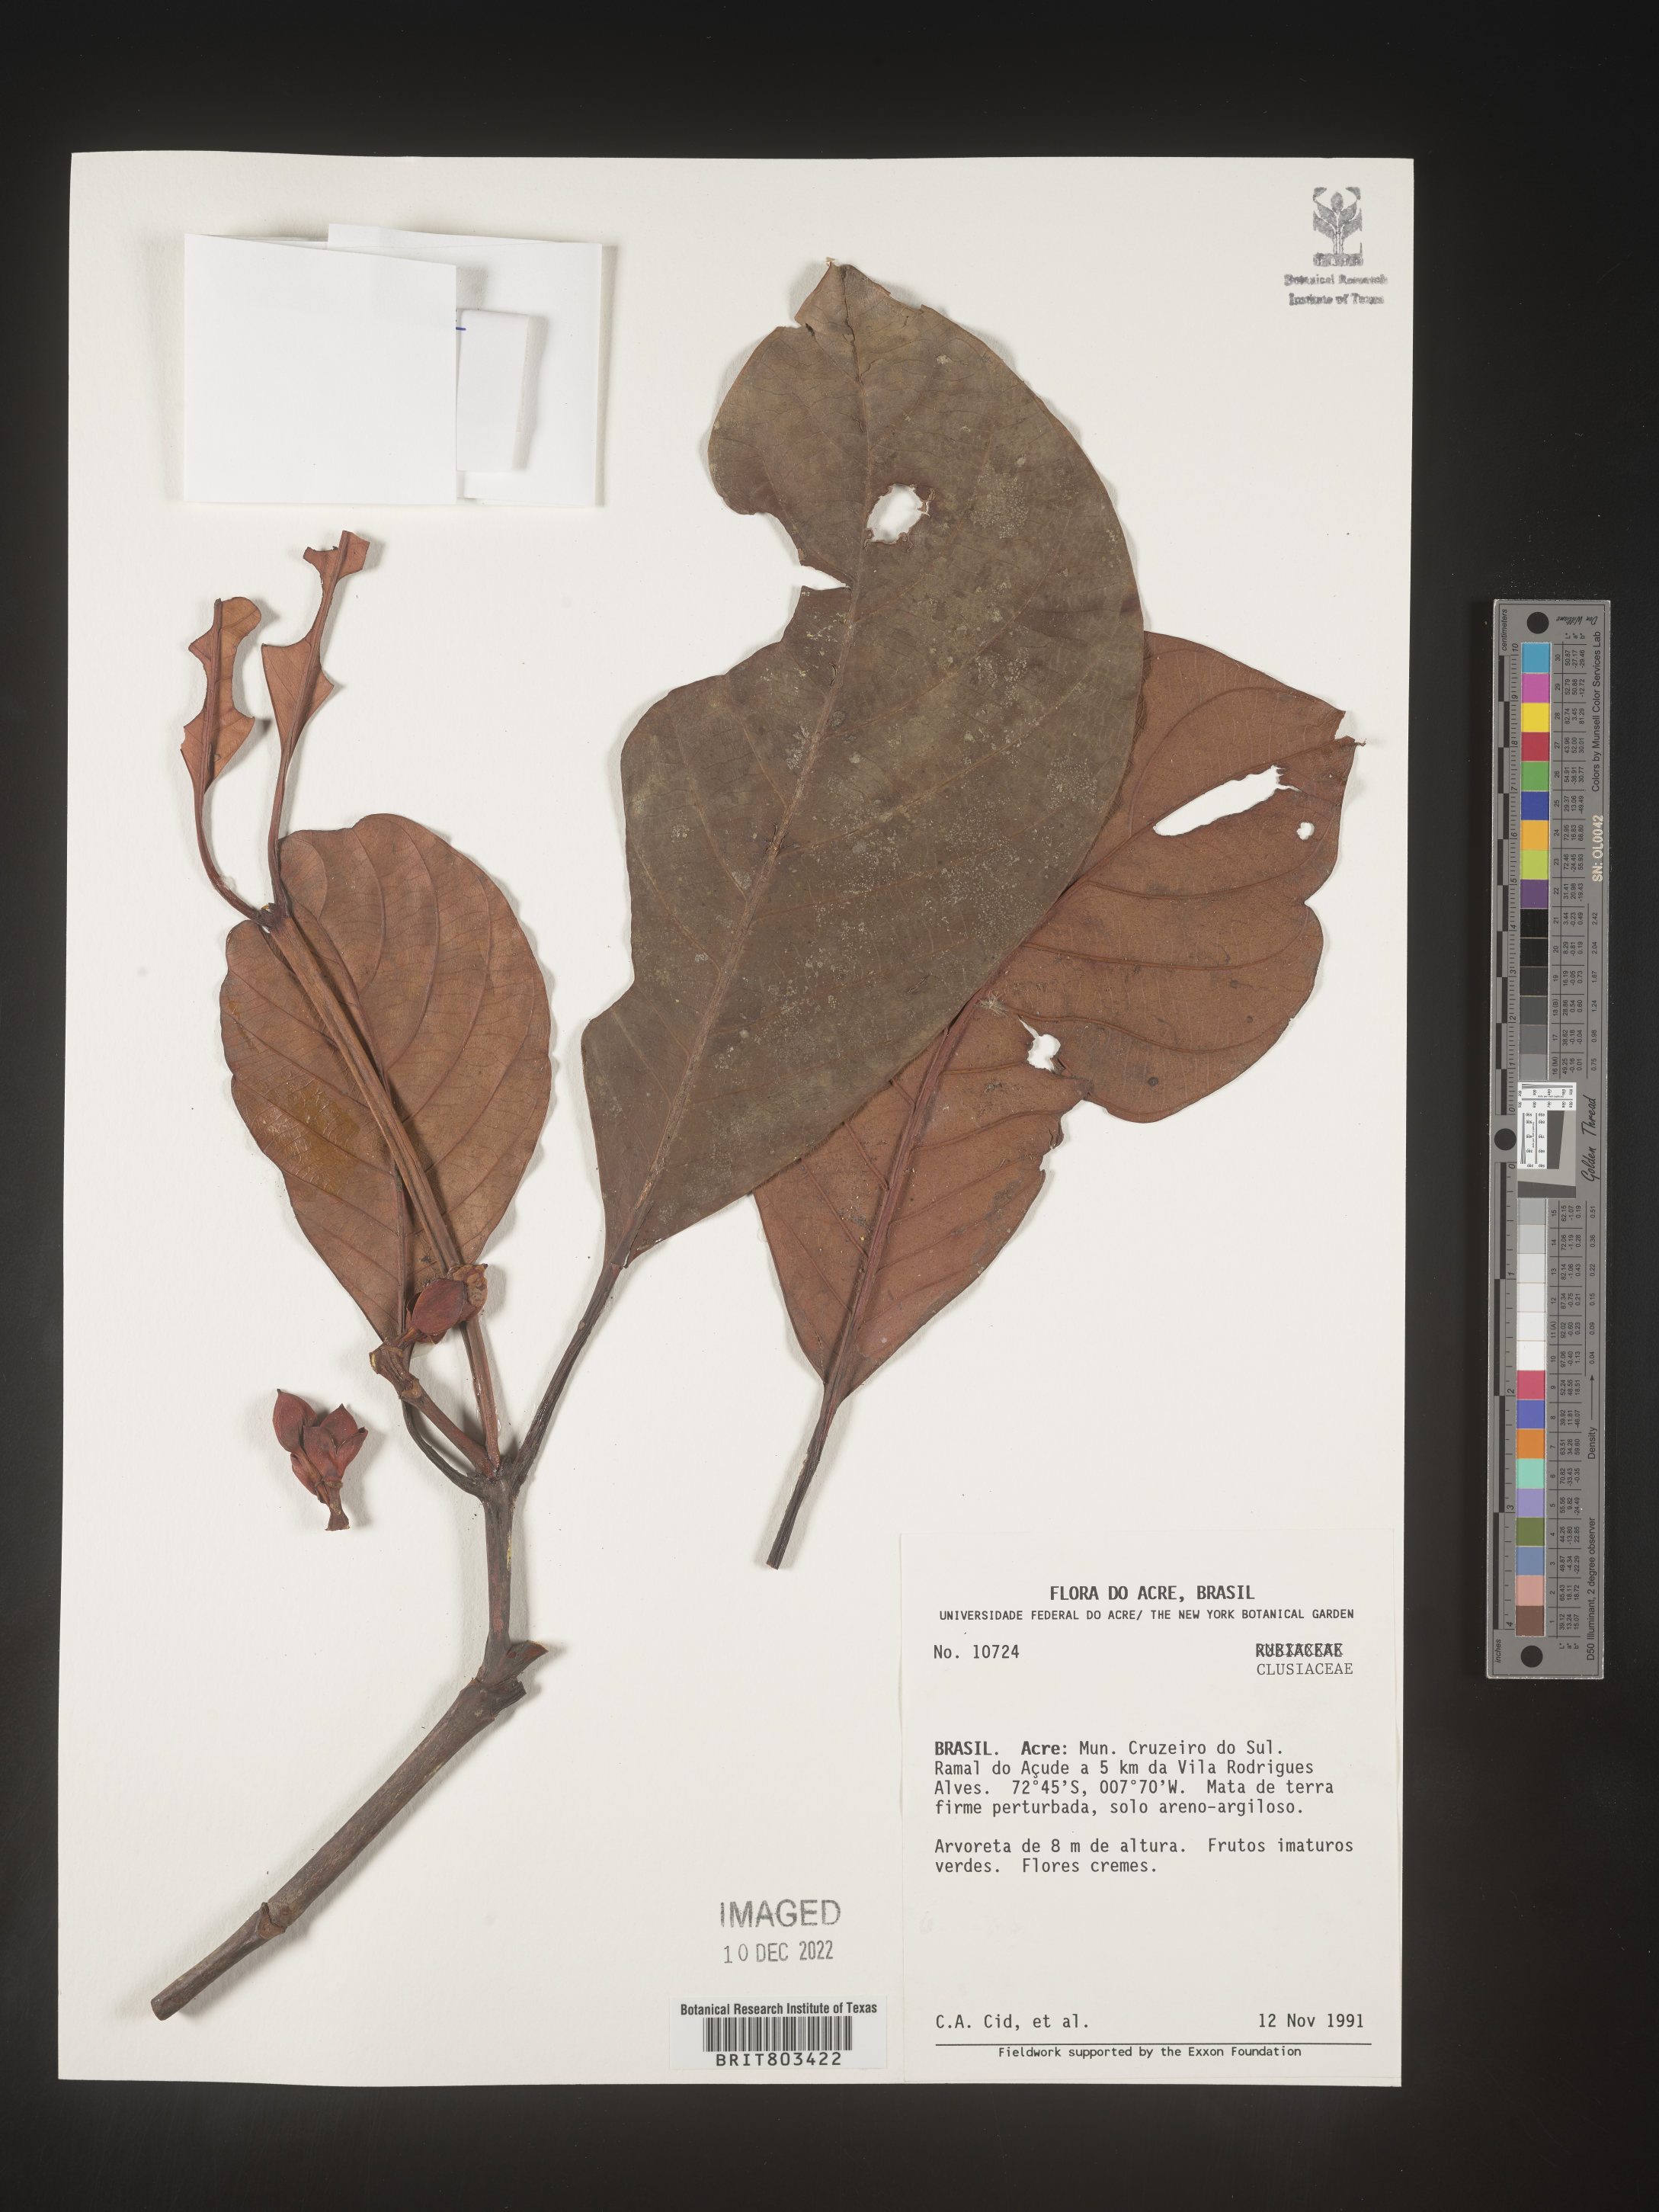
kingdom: Plantae
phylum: Tracheophyta
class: Magnoliopsida
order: Malpighiales
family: Clusiaceae
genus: Tovomita
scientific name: Tovomita
